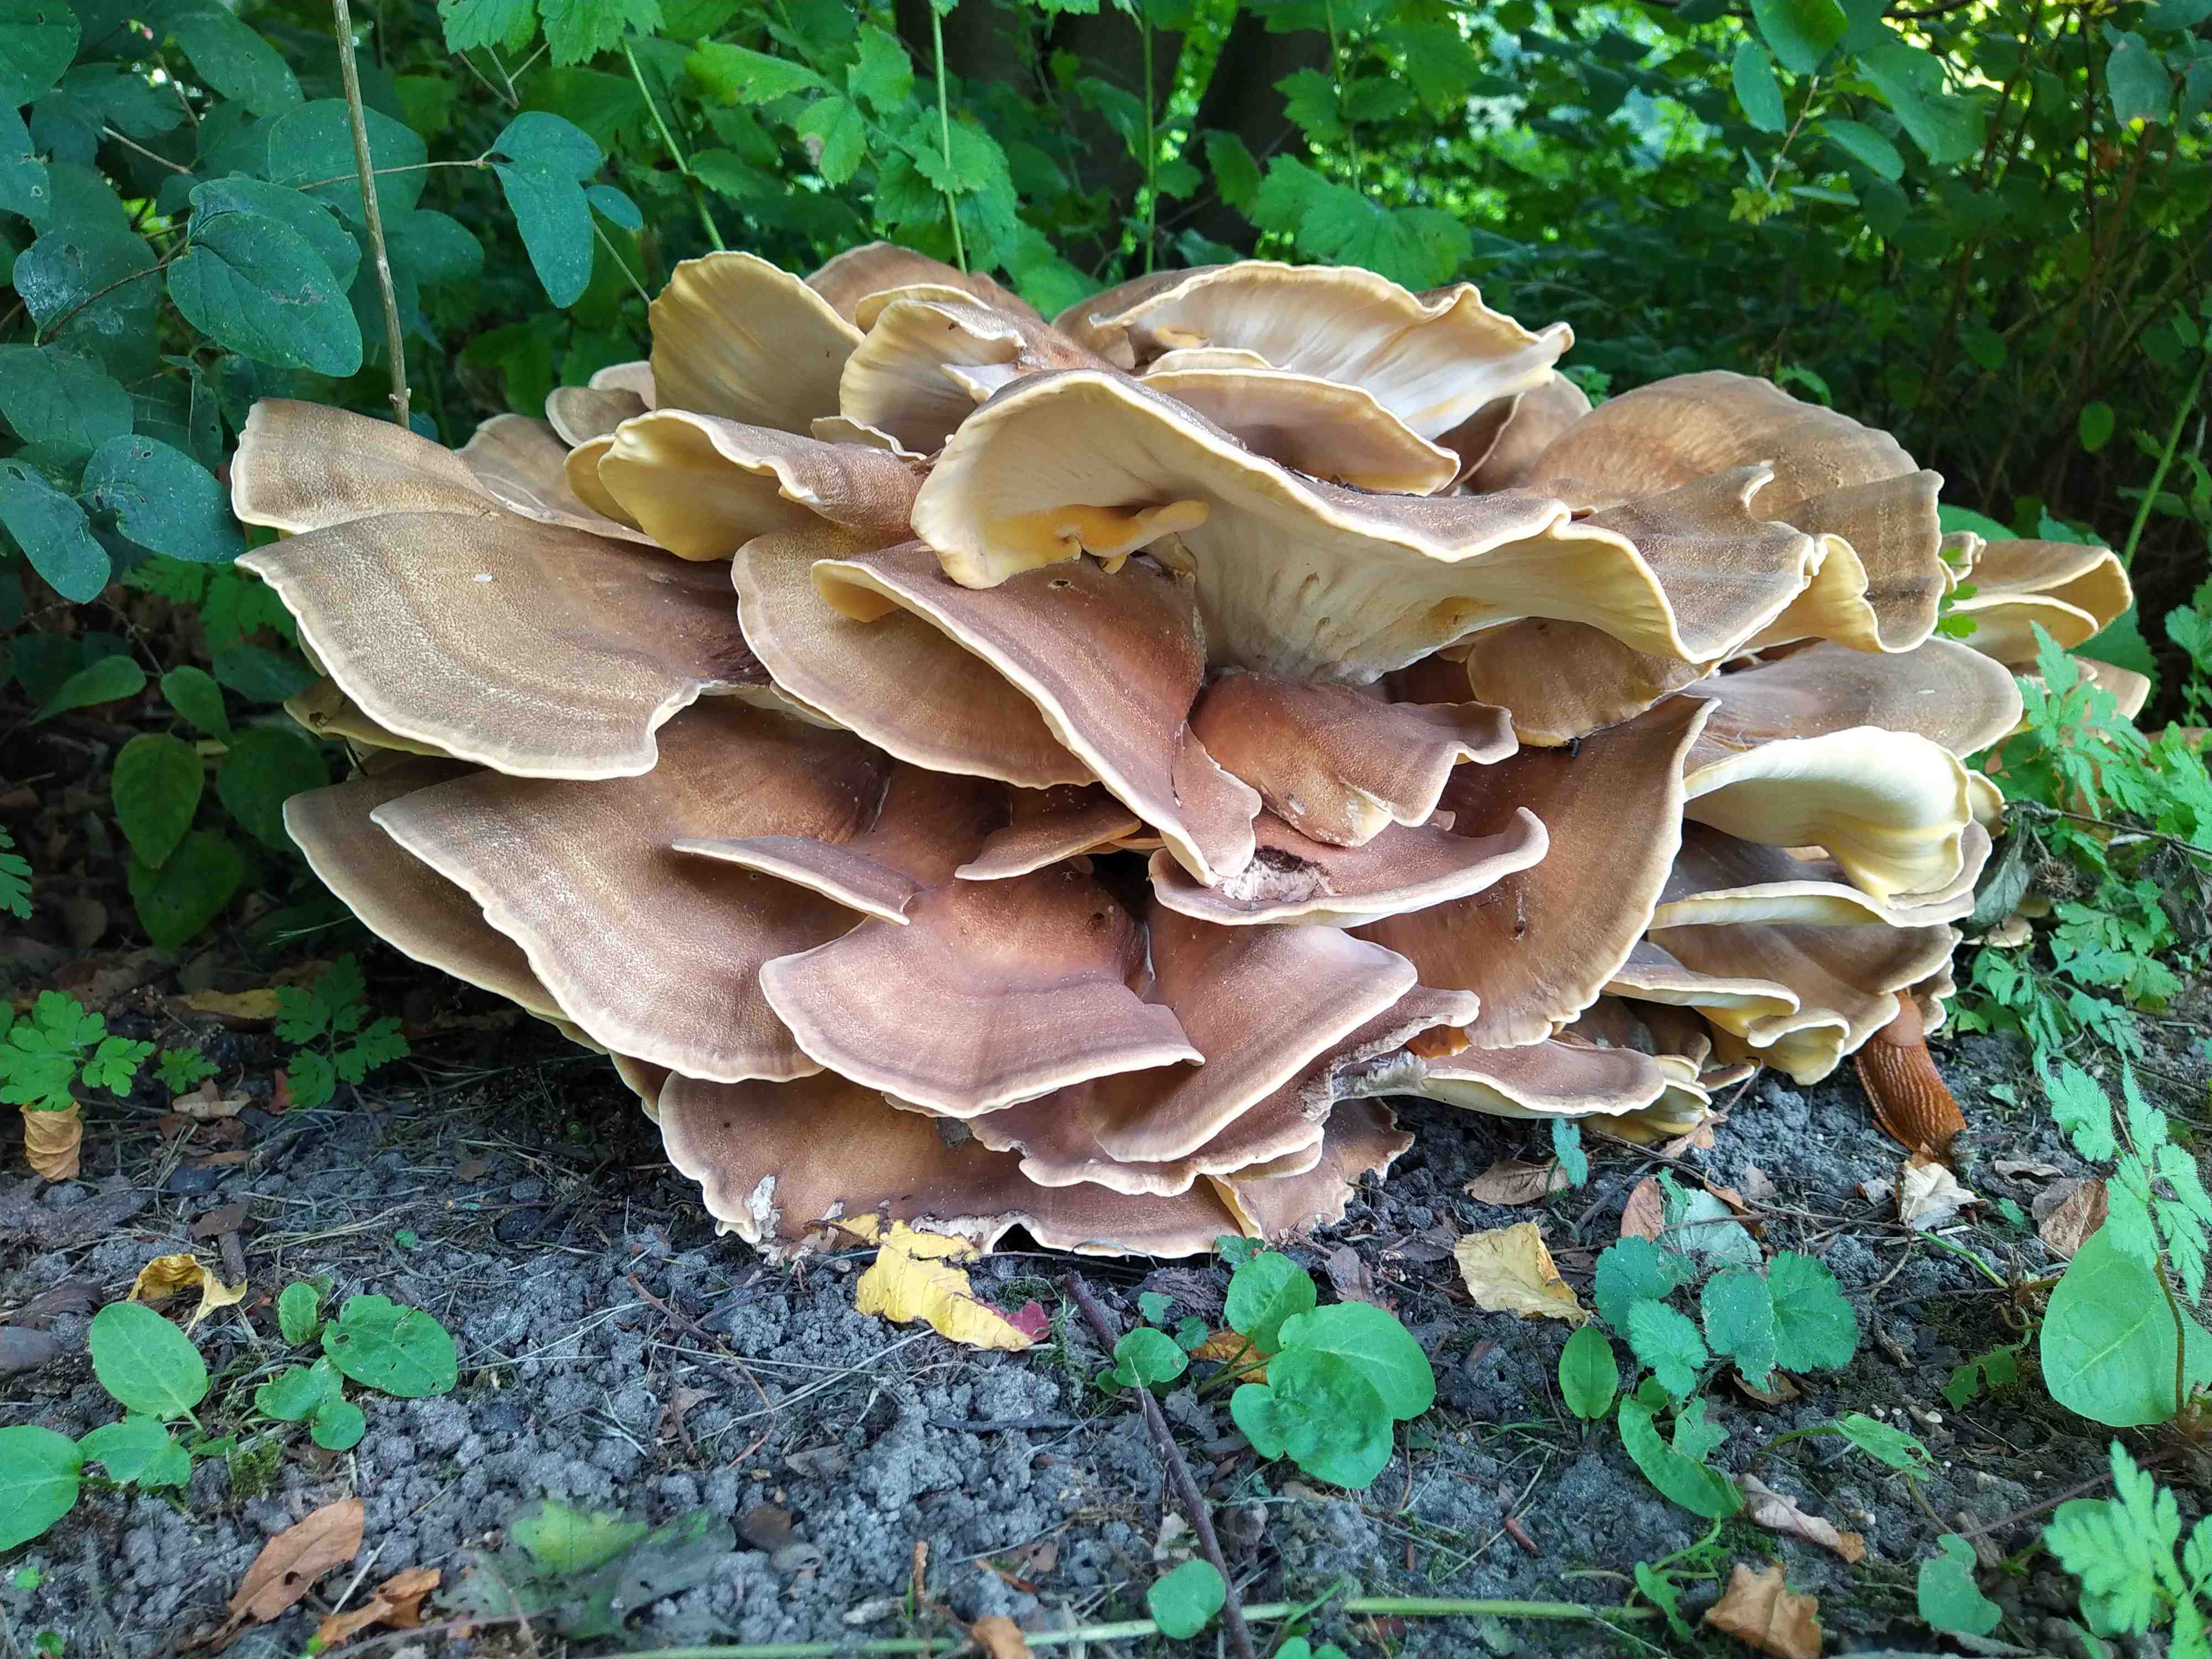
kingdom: Fungi
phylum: Basidiomycota
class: Agaricomycetes
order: Polyporales
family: Meripilaceae
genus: Meripilus
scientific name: Meripilus giganteus
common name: kæmpeporesvamp
